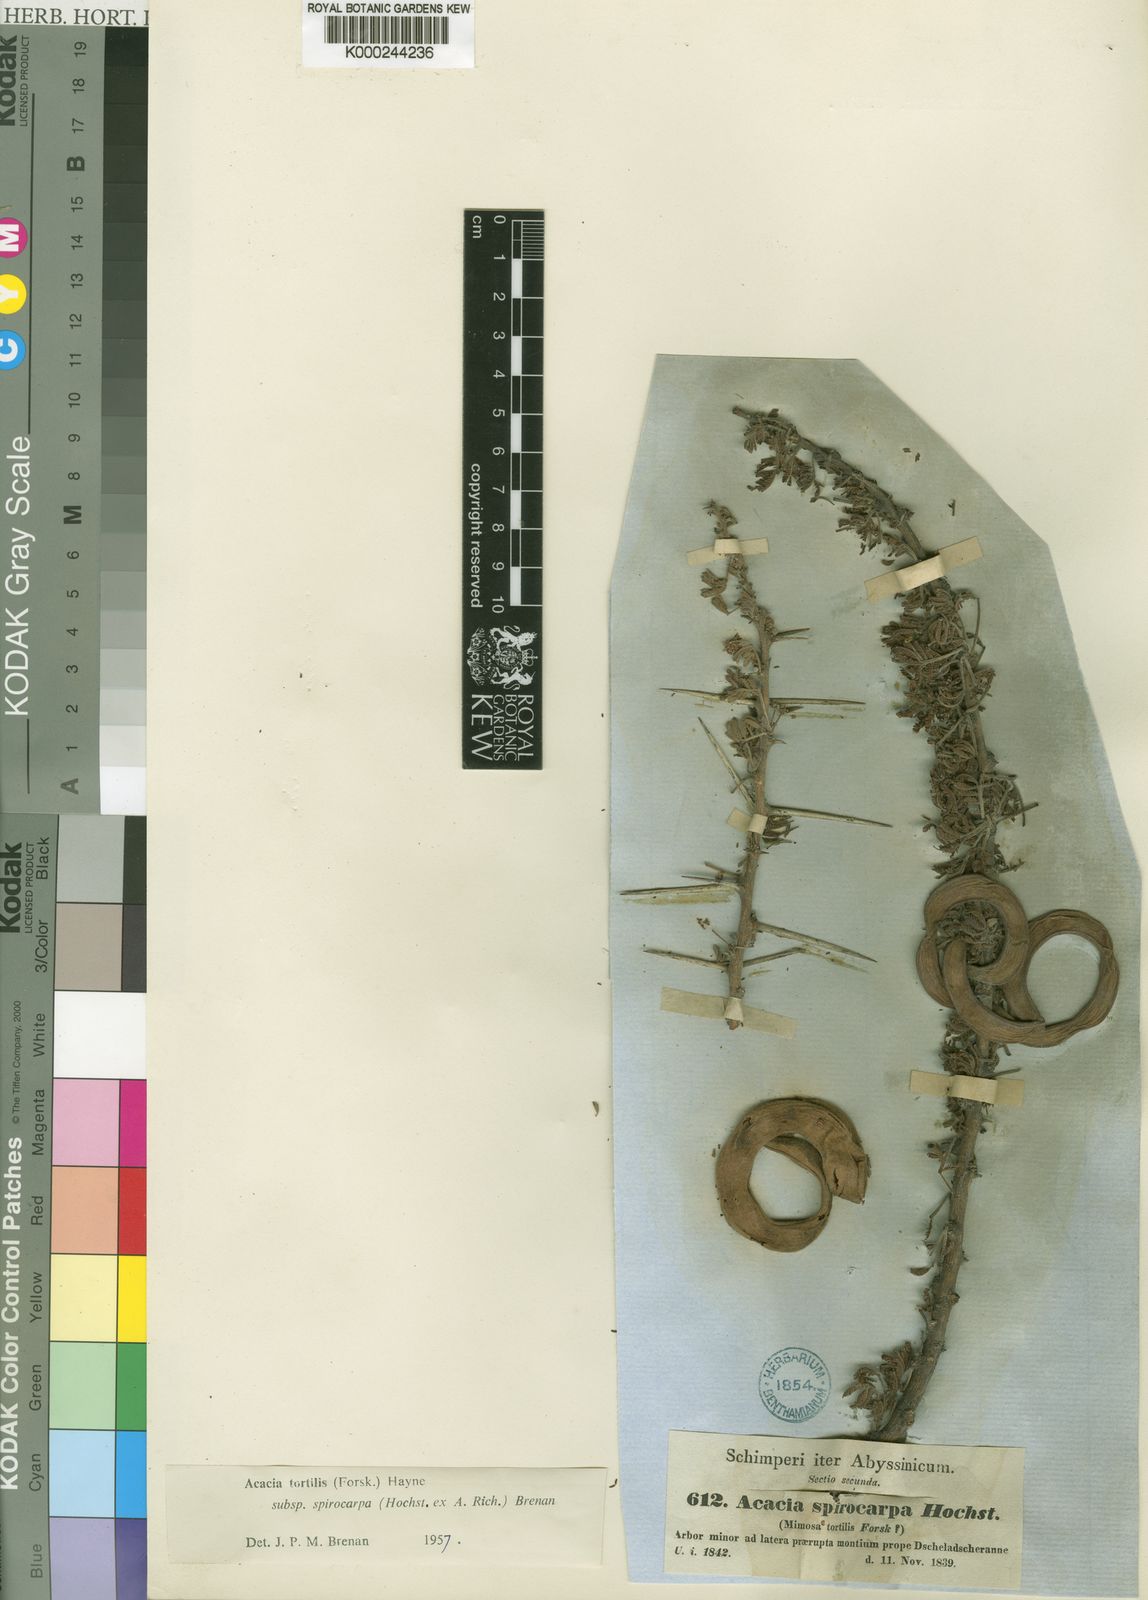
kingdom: Plantae
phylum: Tracheophyta
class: Magnoliopsida
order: Fabales
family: Fabaceae
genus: Vachellia
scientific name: Vachellia tortilis
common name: Umbrella thorn acacia
